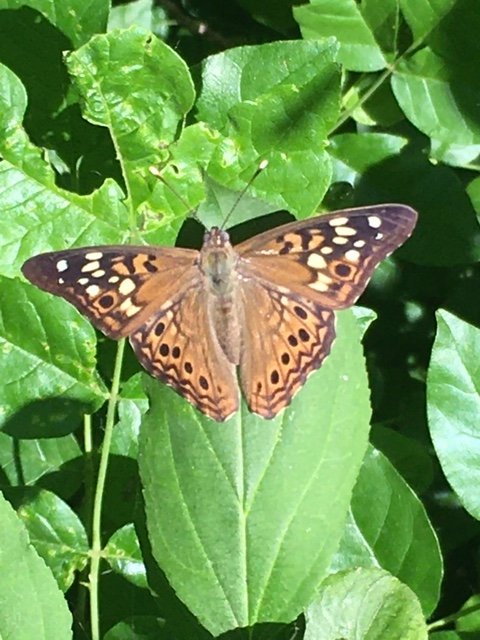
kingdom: Animalia
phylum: Arthropoda
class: Insecta
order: Lepidoptera
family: Nymphalidae
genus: Asterocampa
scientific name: Asterocampa celtis
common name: Hackberry Emperor
